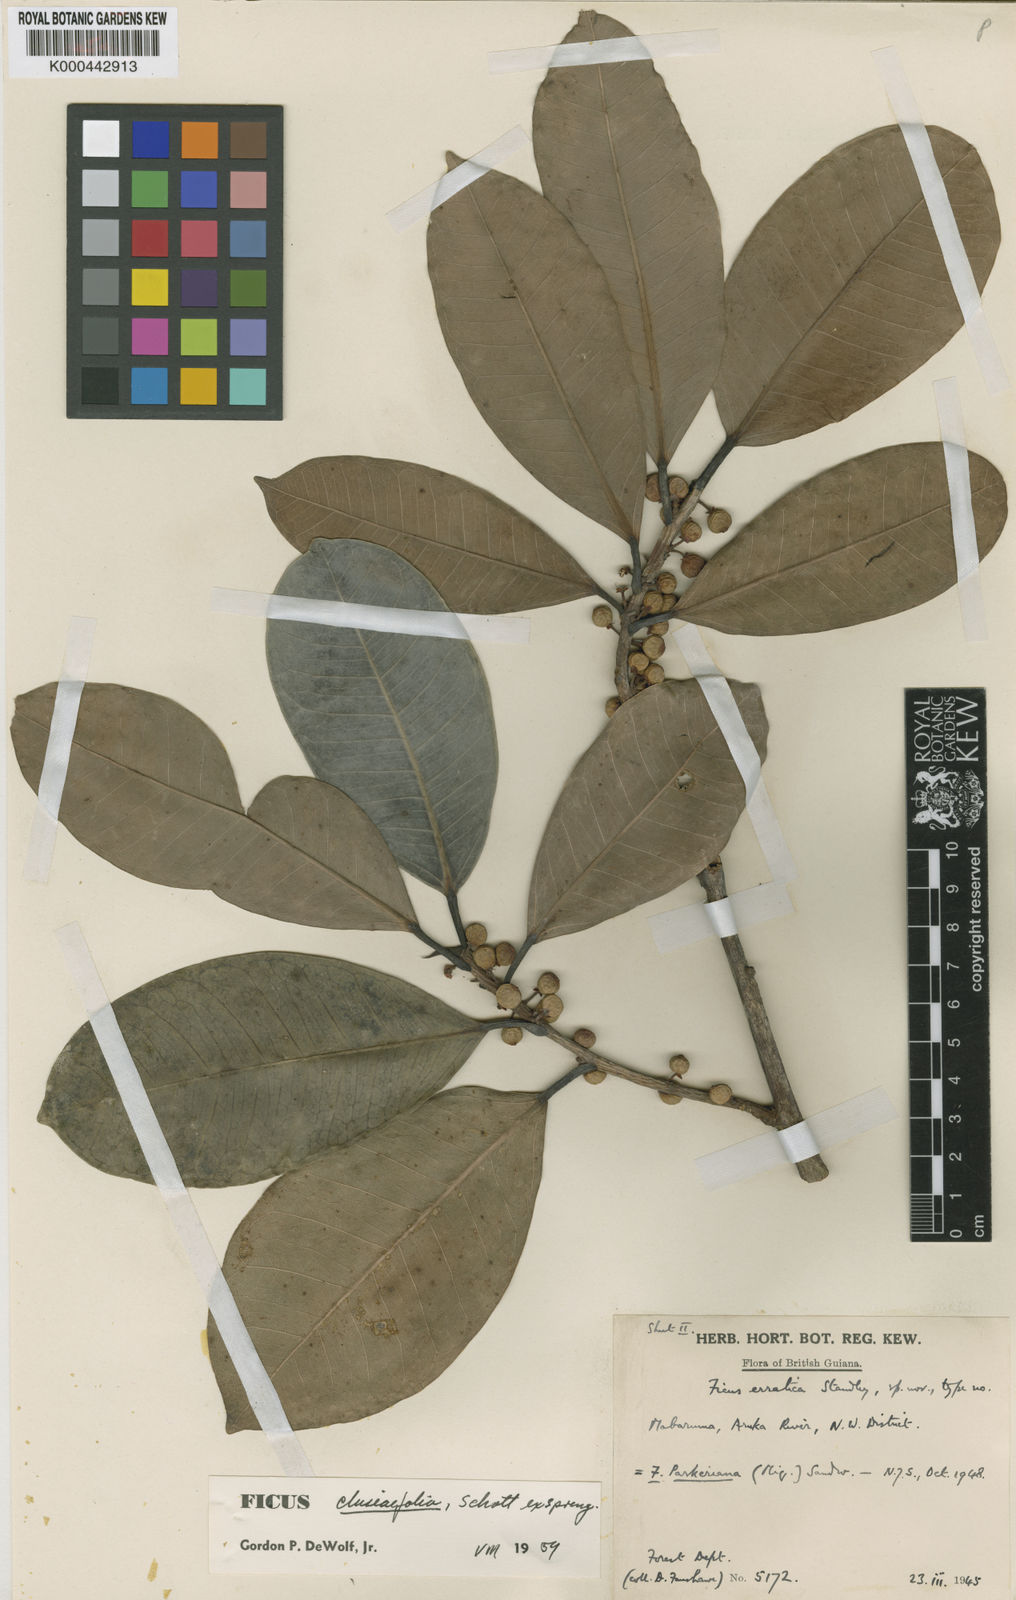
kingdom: Plantae
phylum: Tracheophyta
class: Magnoliopsida
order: Rosales
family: Moraceae
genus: Ficus
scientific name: Ficus americana
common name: Jamaican cherry fig
